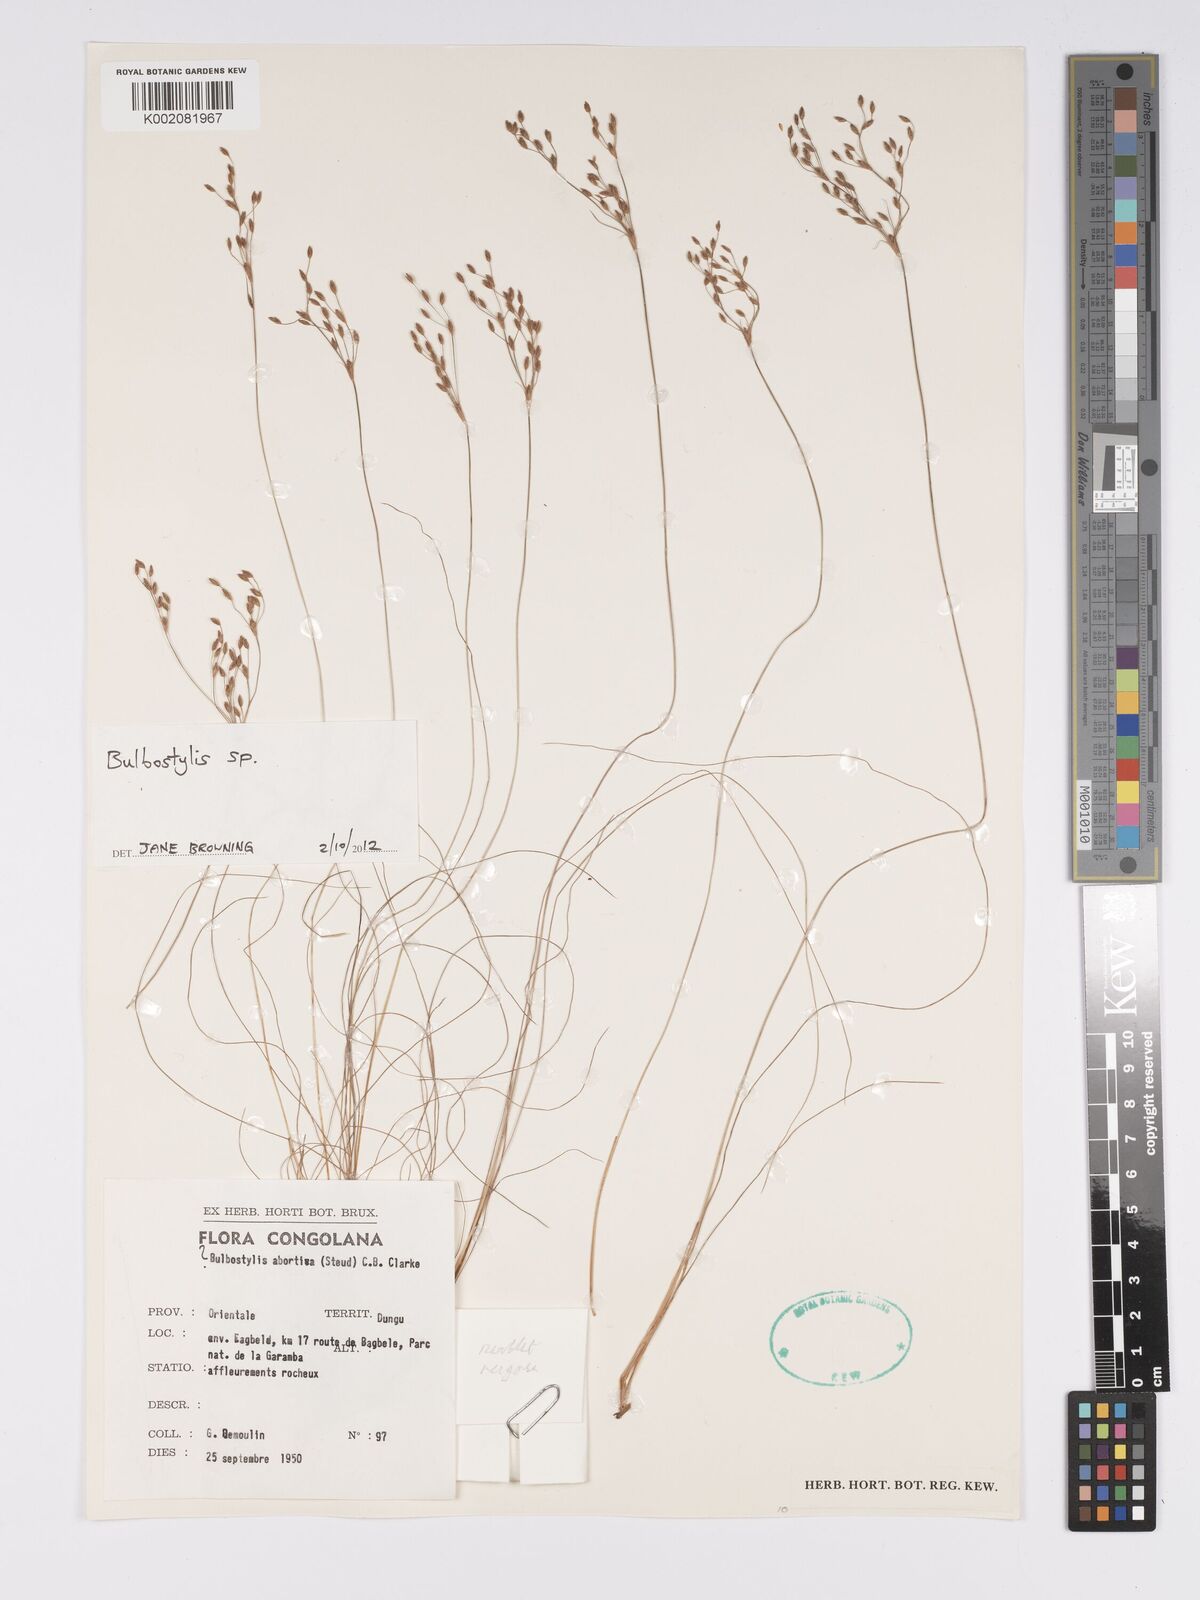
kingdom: Plantae
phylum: Tracheophyta
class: Magnoliopsida
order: Asterales
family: Asteraceae
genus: Bulbostylis
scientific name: Bulbostylis
